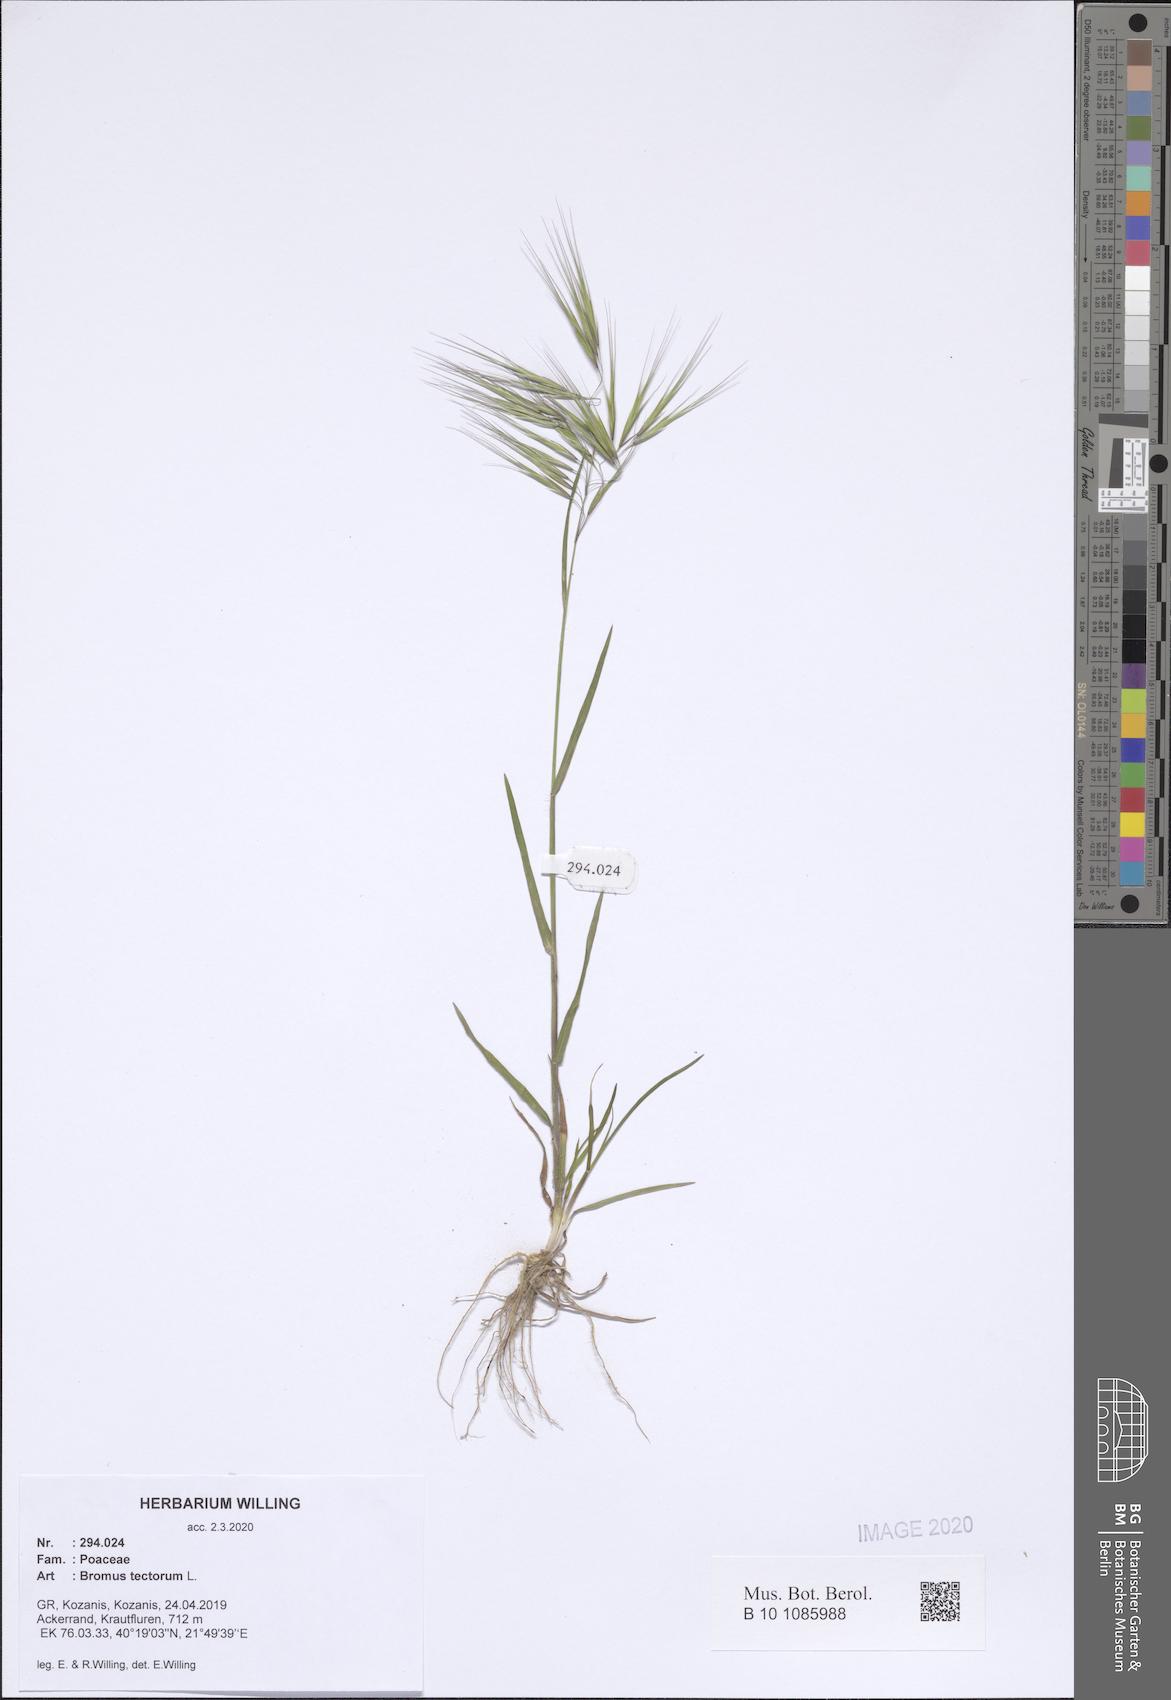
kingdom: Plantae
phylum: Tracheophyta
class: Liliopsida
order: Poales
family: Poaceae
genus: Bromus
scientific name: Bromus tectorum
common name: Cheatgrass
